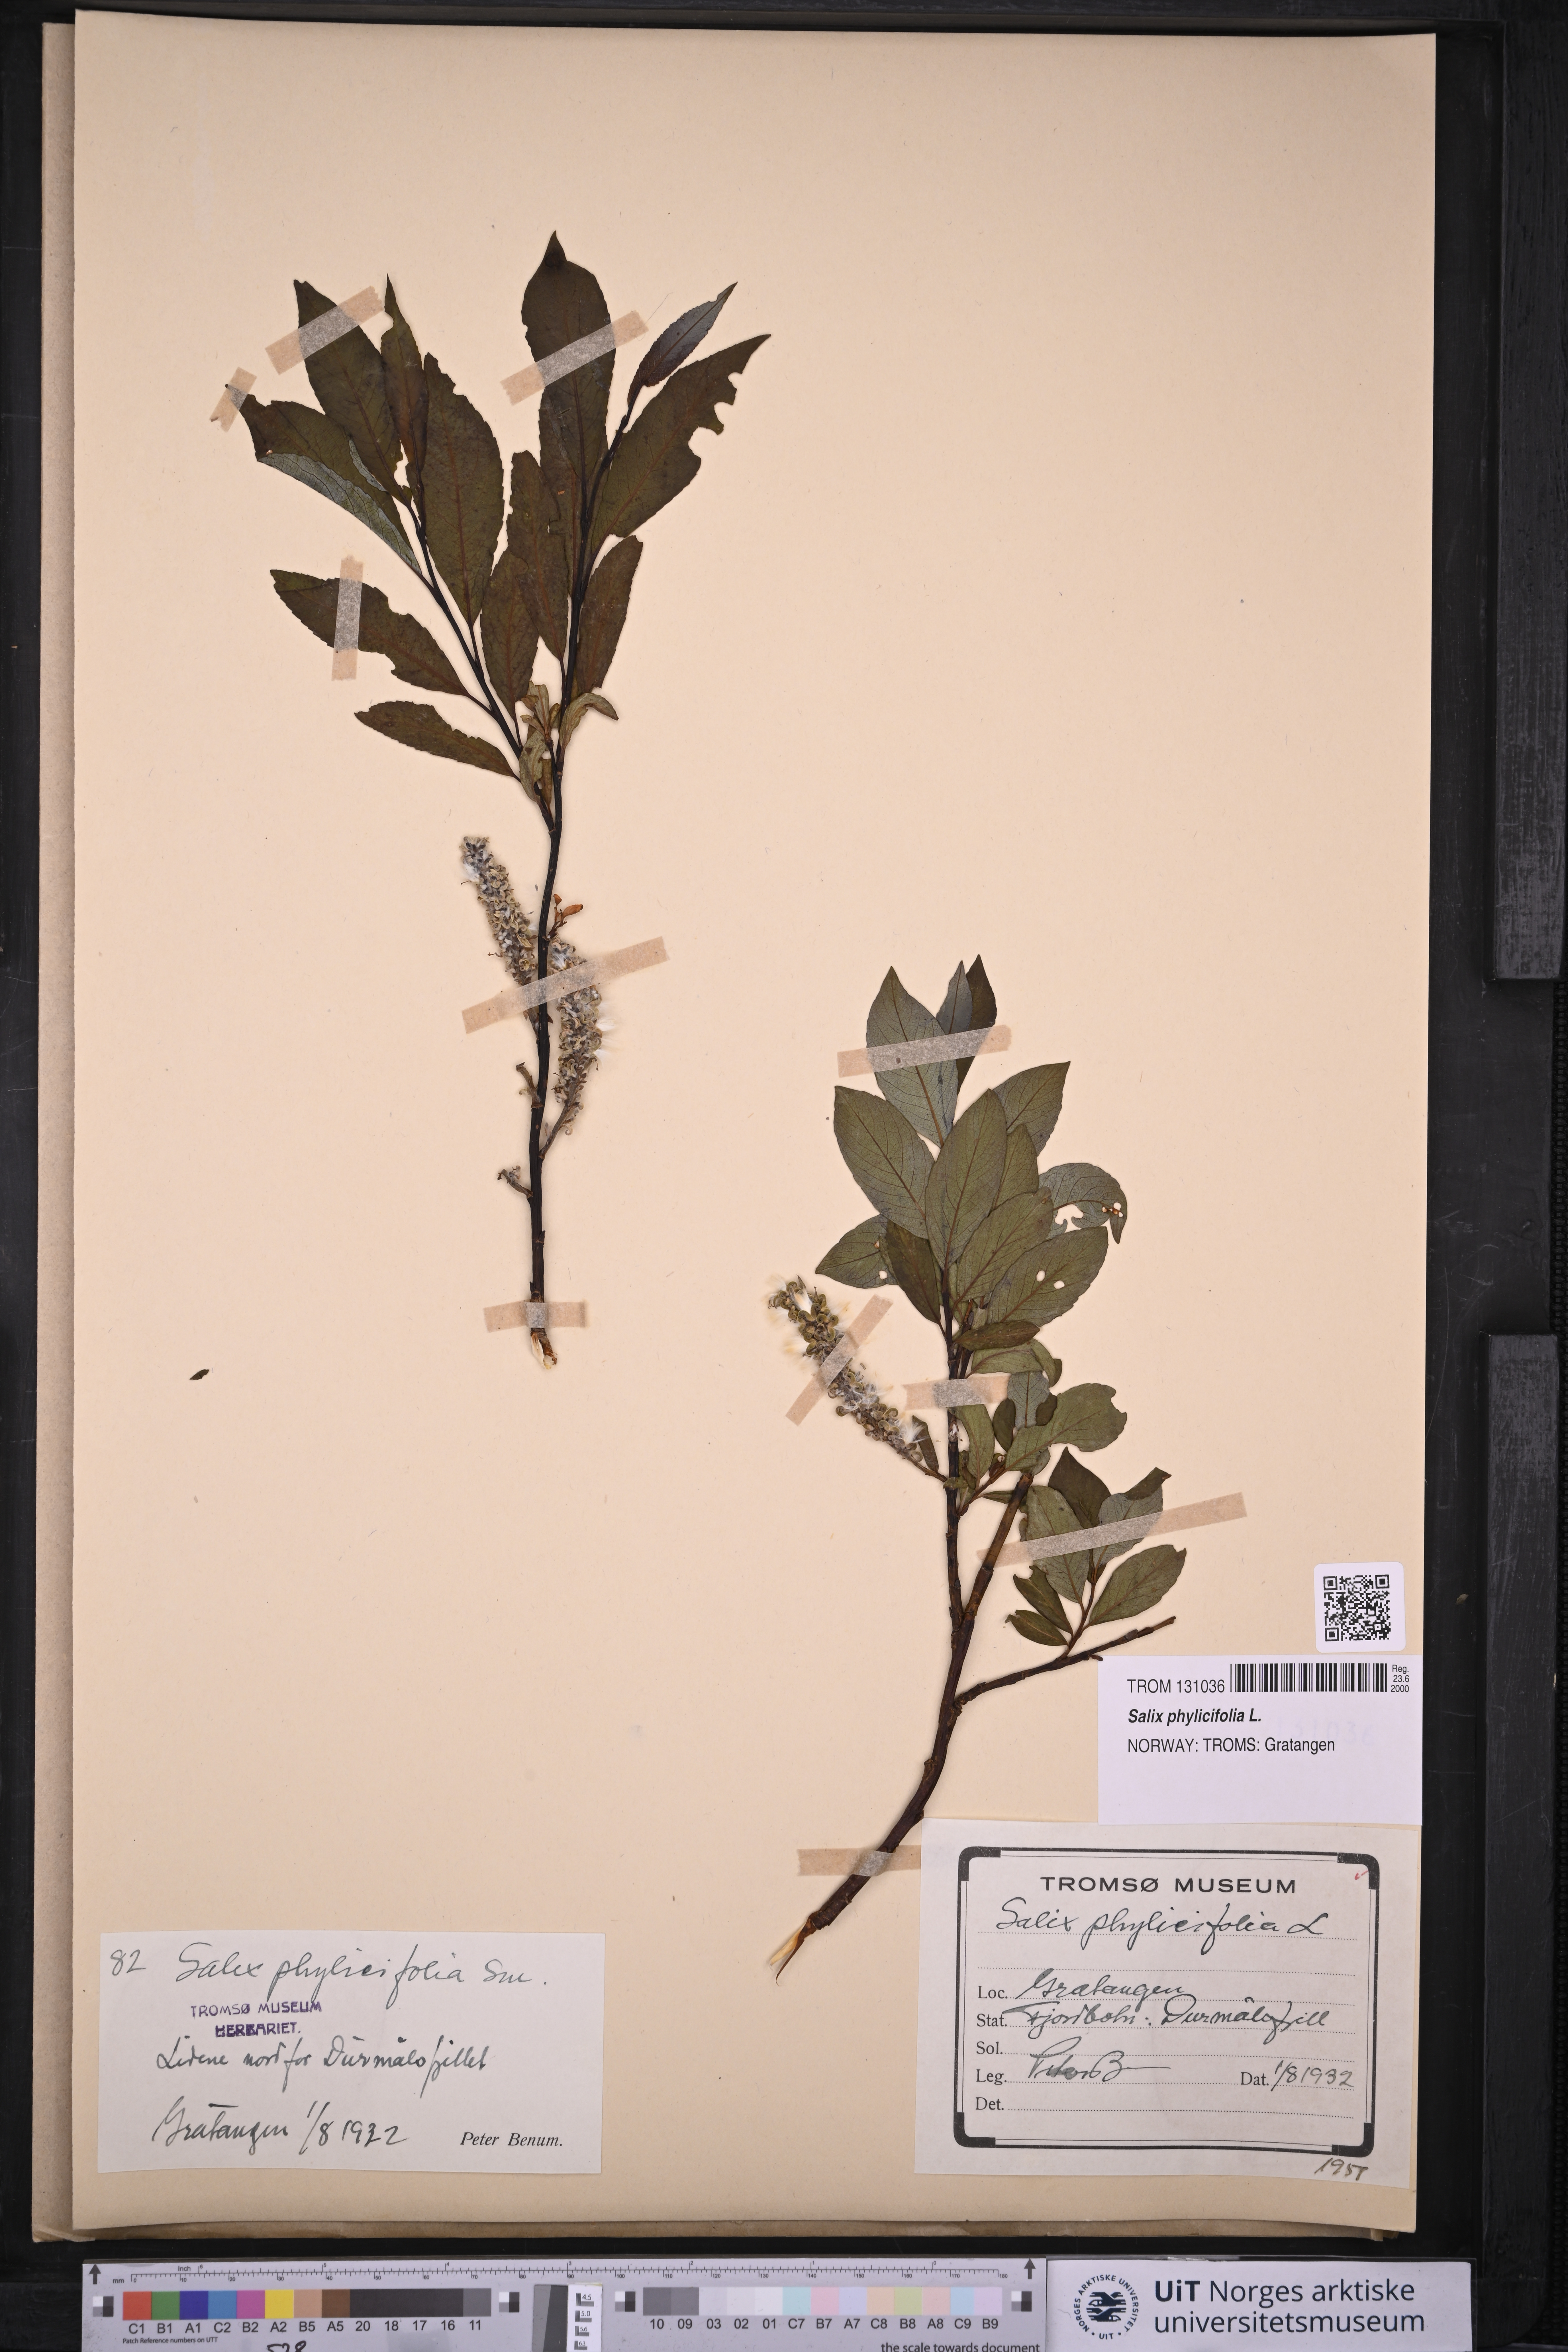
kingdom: Plantae
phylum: Tracheophyta
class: Magnoliopsida
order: Malpighiales
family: Salicaceae
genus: Salix
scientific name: Salix phylicifolia
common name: Tea-leaved willow
